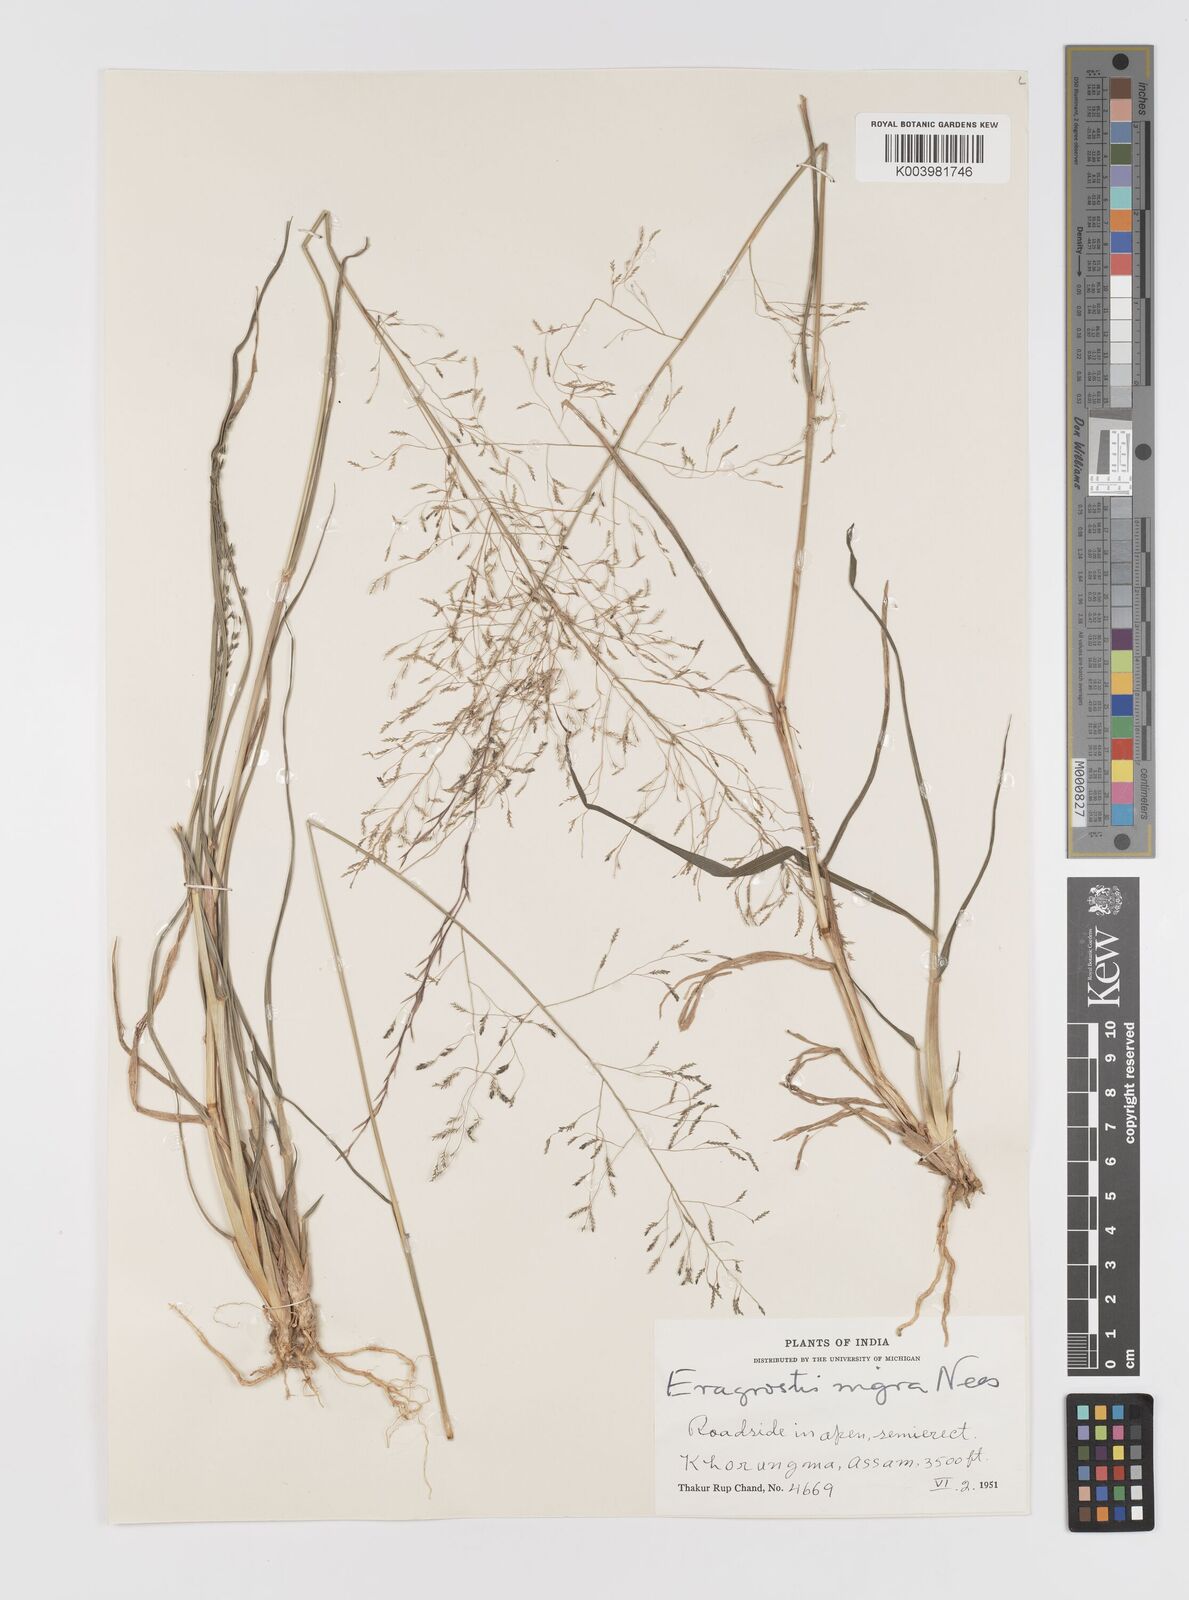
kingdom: Plantae
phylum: Tracheophyta
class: Liliopsida
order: Poales
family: Poaceae
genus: Eragrostis
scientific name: Eragrostis nigra
